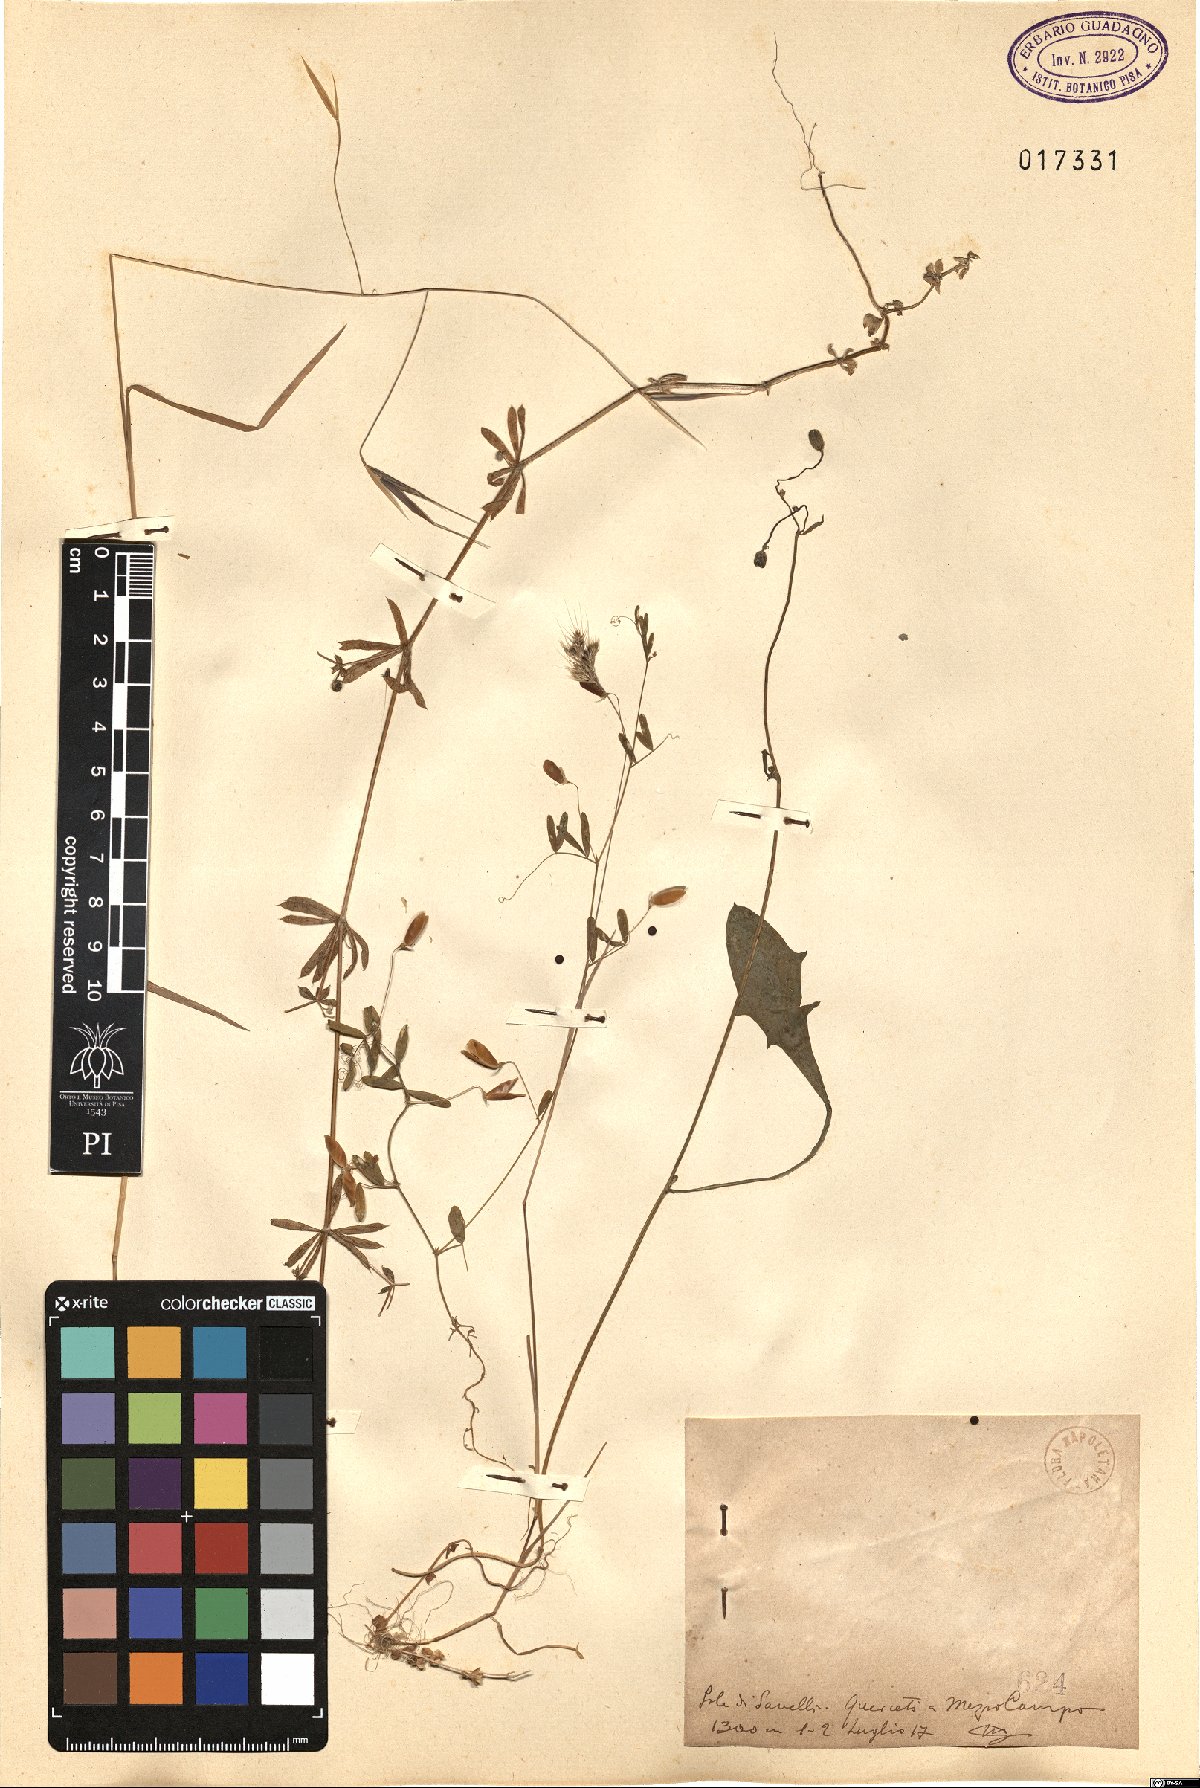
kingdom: Plantae
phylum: Tracheophyta
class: Magnoliopsida
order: Gentianales
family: Rubiaceae
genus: Galium
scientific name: Galium
